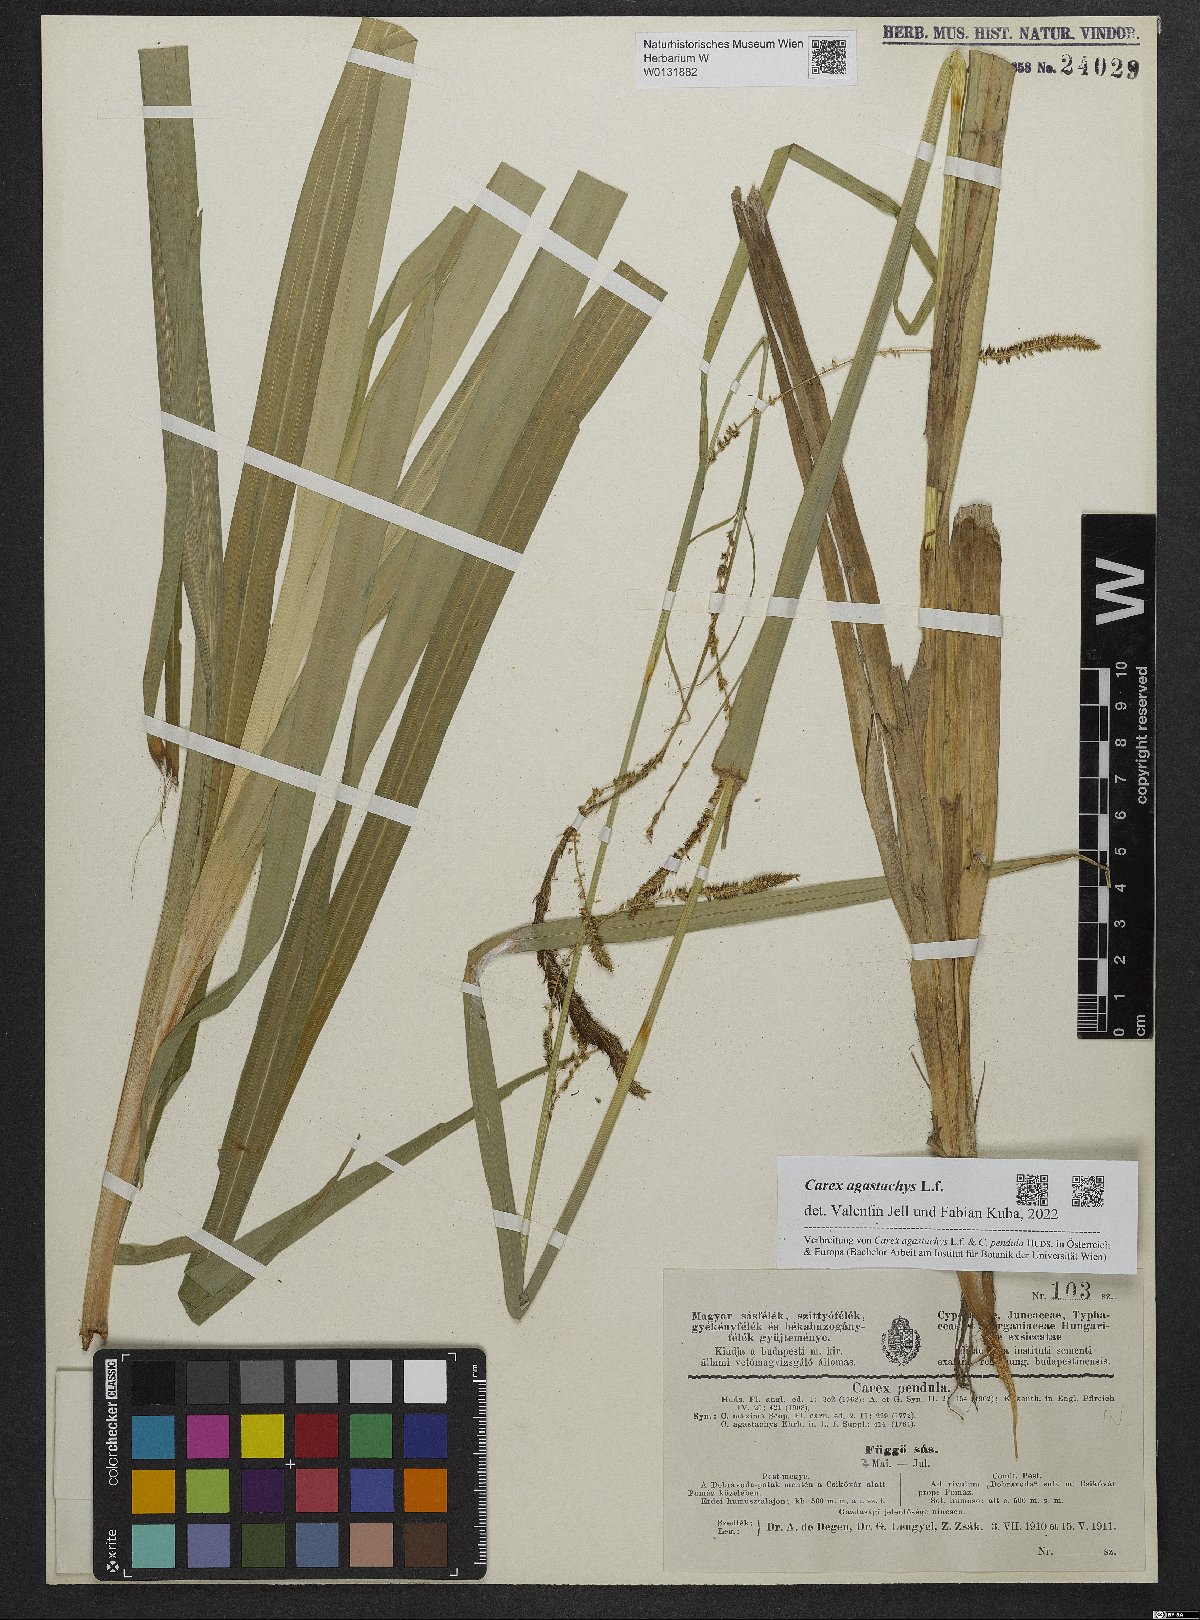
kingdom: Plantae
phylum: Tracheophyta
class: Liliopsida
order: Poales
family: Cyperaceae
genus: Carex
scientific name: Carex agastachys
